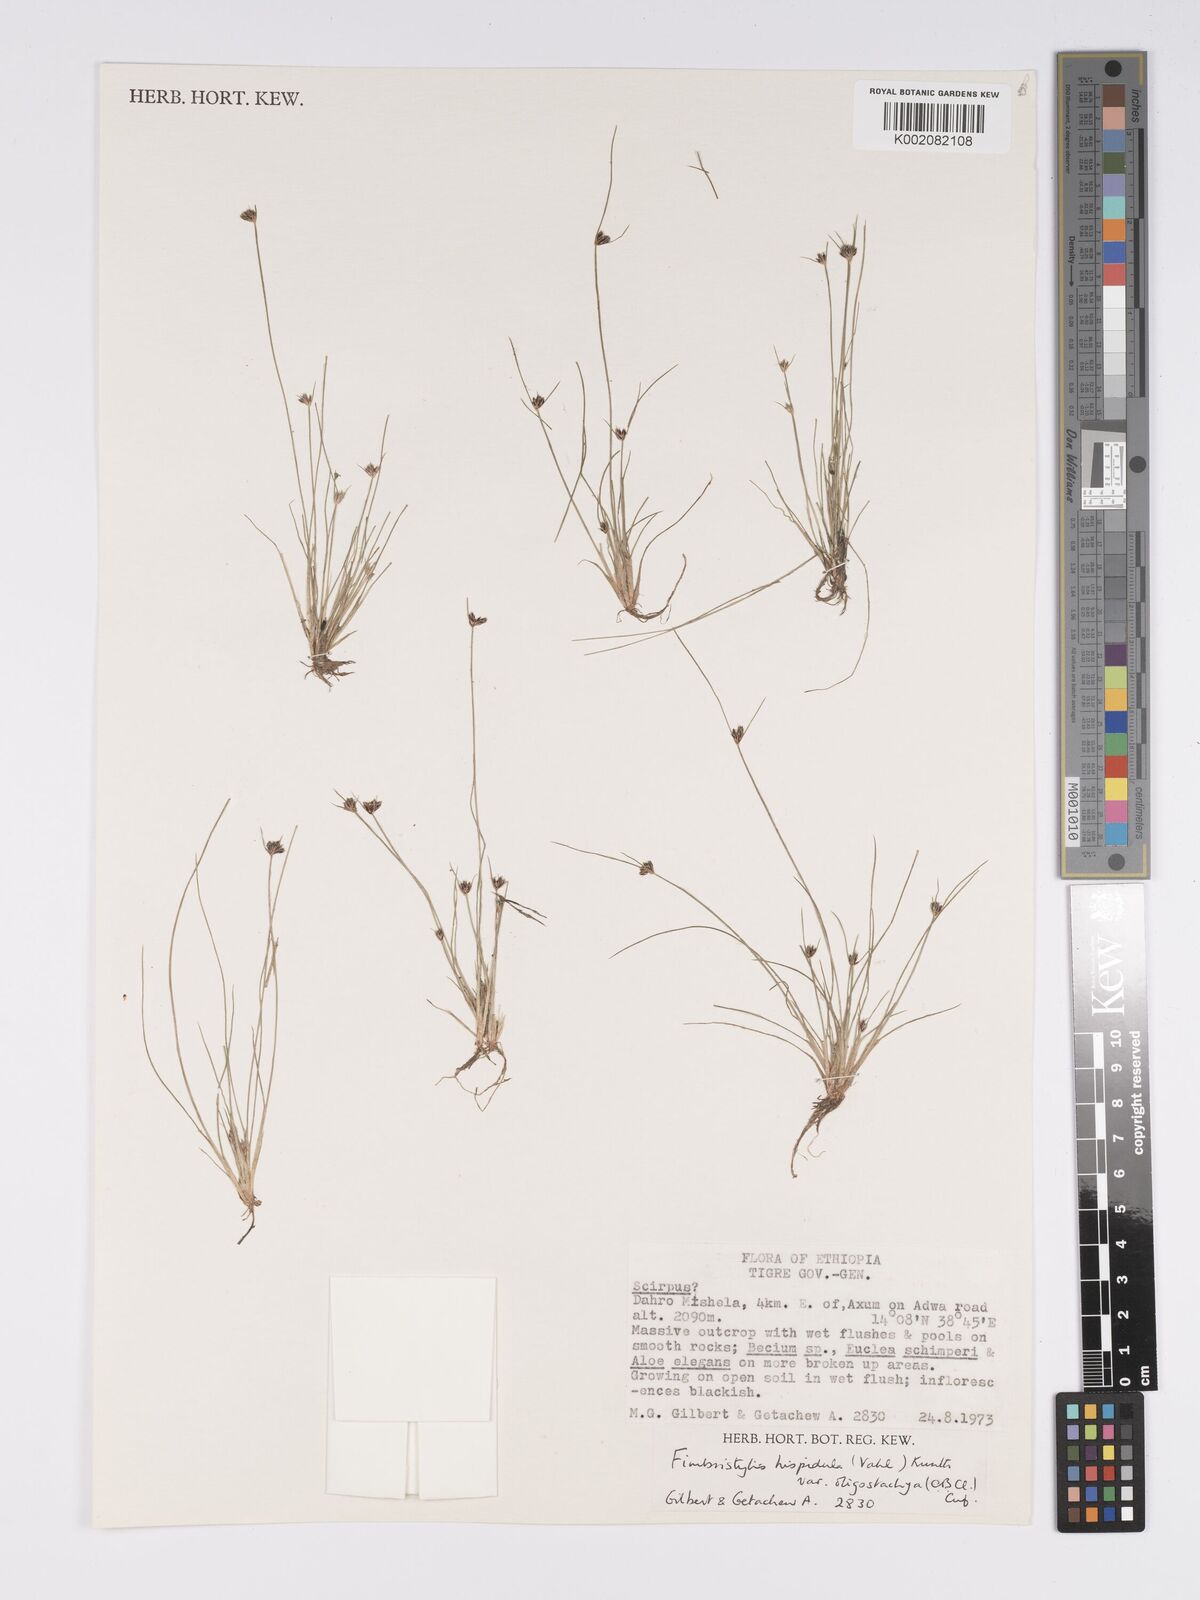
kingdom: Plantae
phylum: Tracheophyta
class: Liliopsida
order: Poales
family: Cyperaceae
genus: Bulbostylis
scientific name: Bulbostylis hispidula
